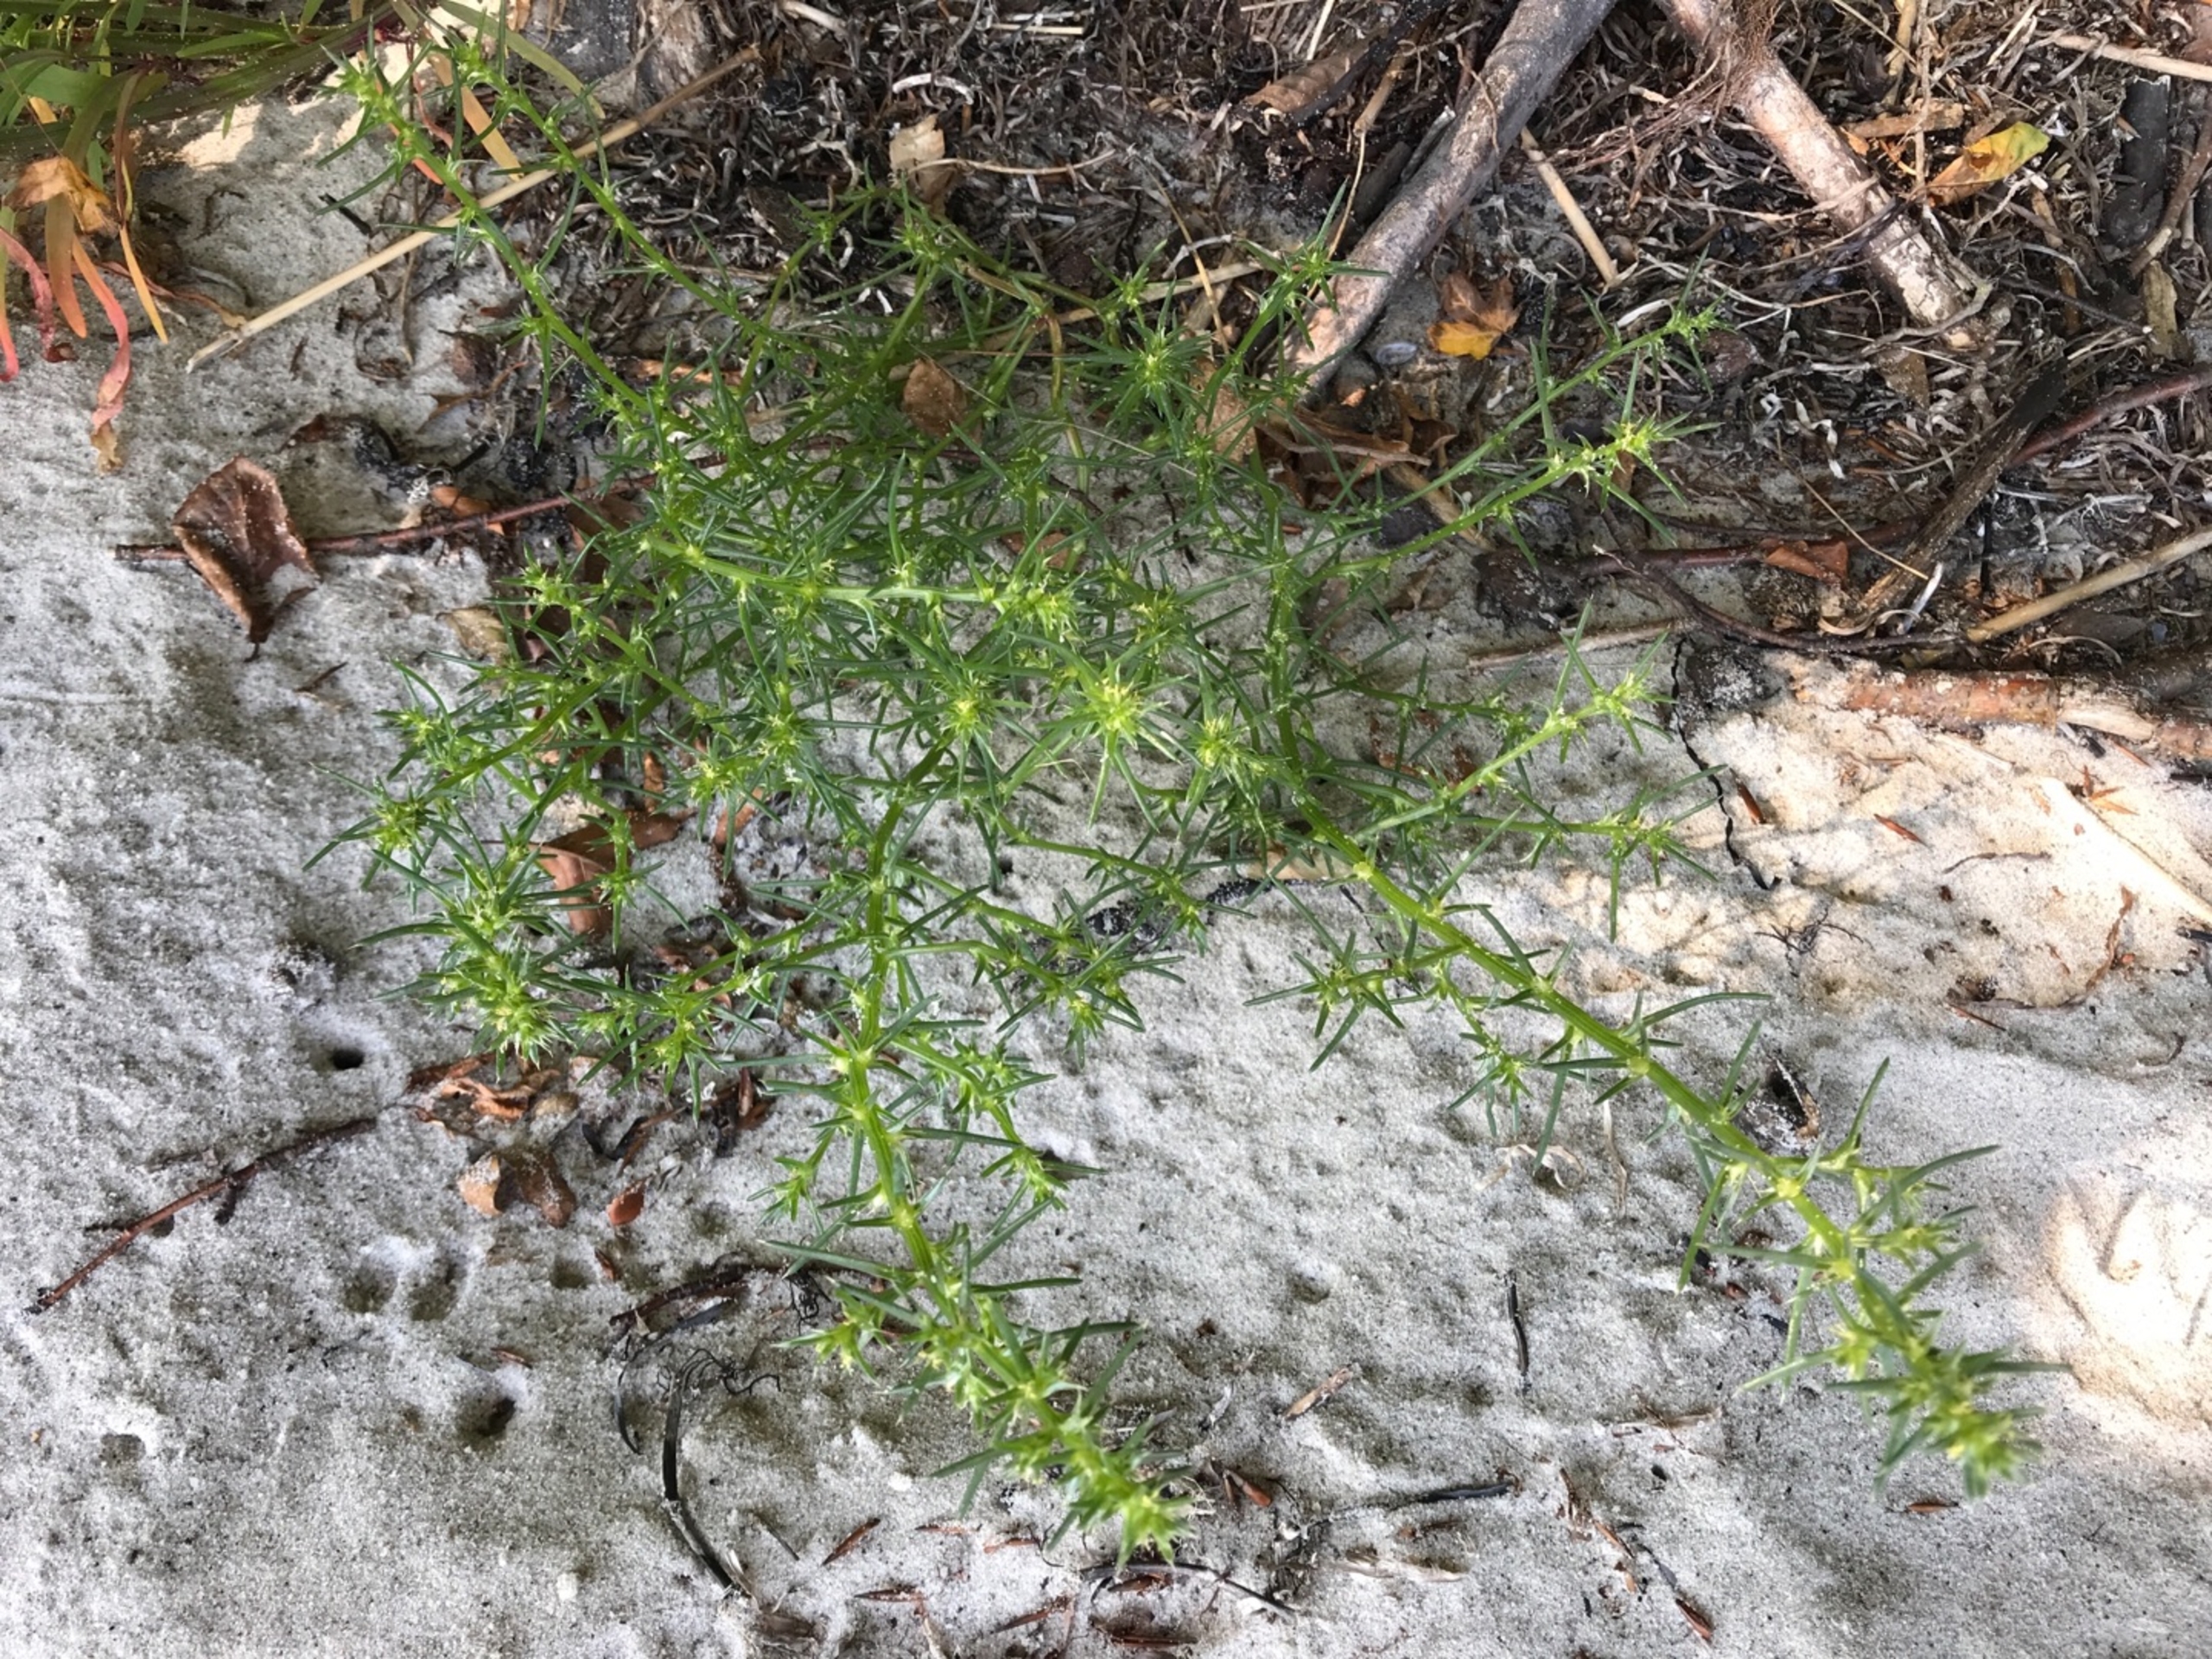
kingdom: Plantae
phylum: Tracheophyta
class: Magnoliopsida
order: Caryophyllales
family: Amaranthaceae
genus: Salsola
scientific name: Salsola kali
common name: Sodaurt
